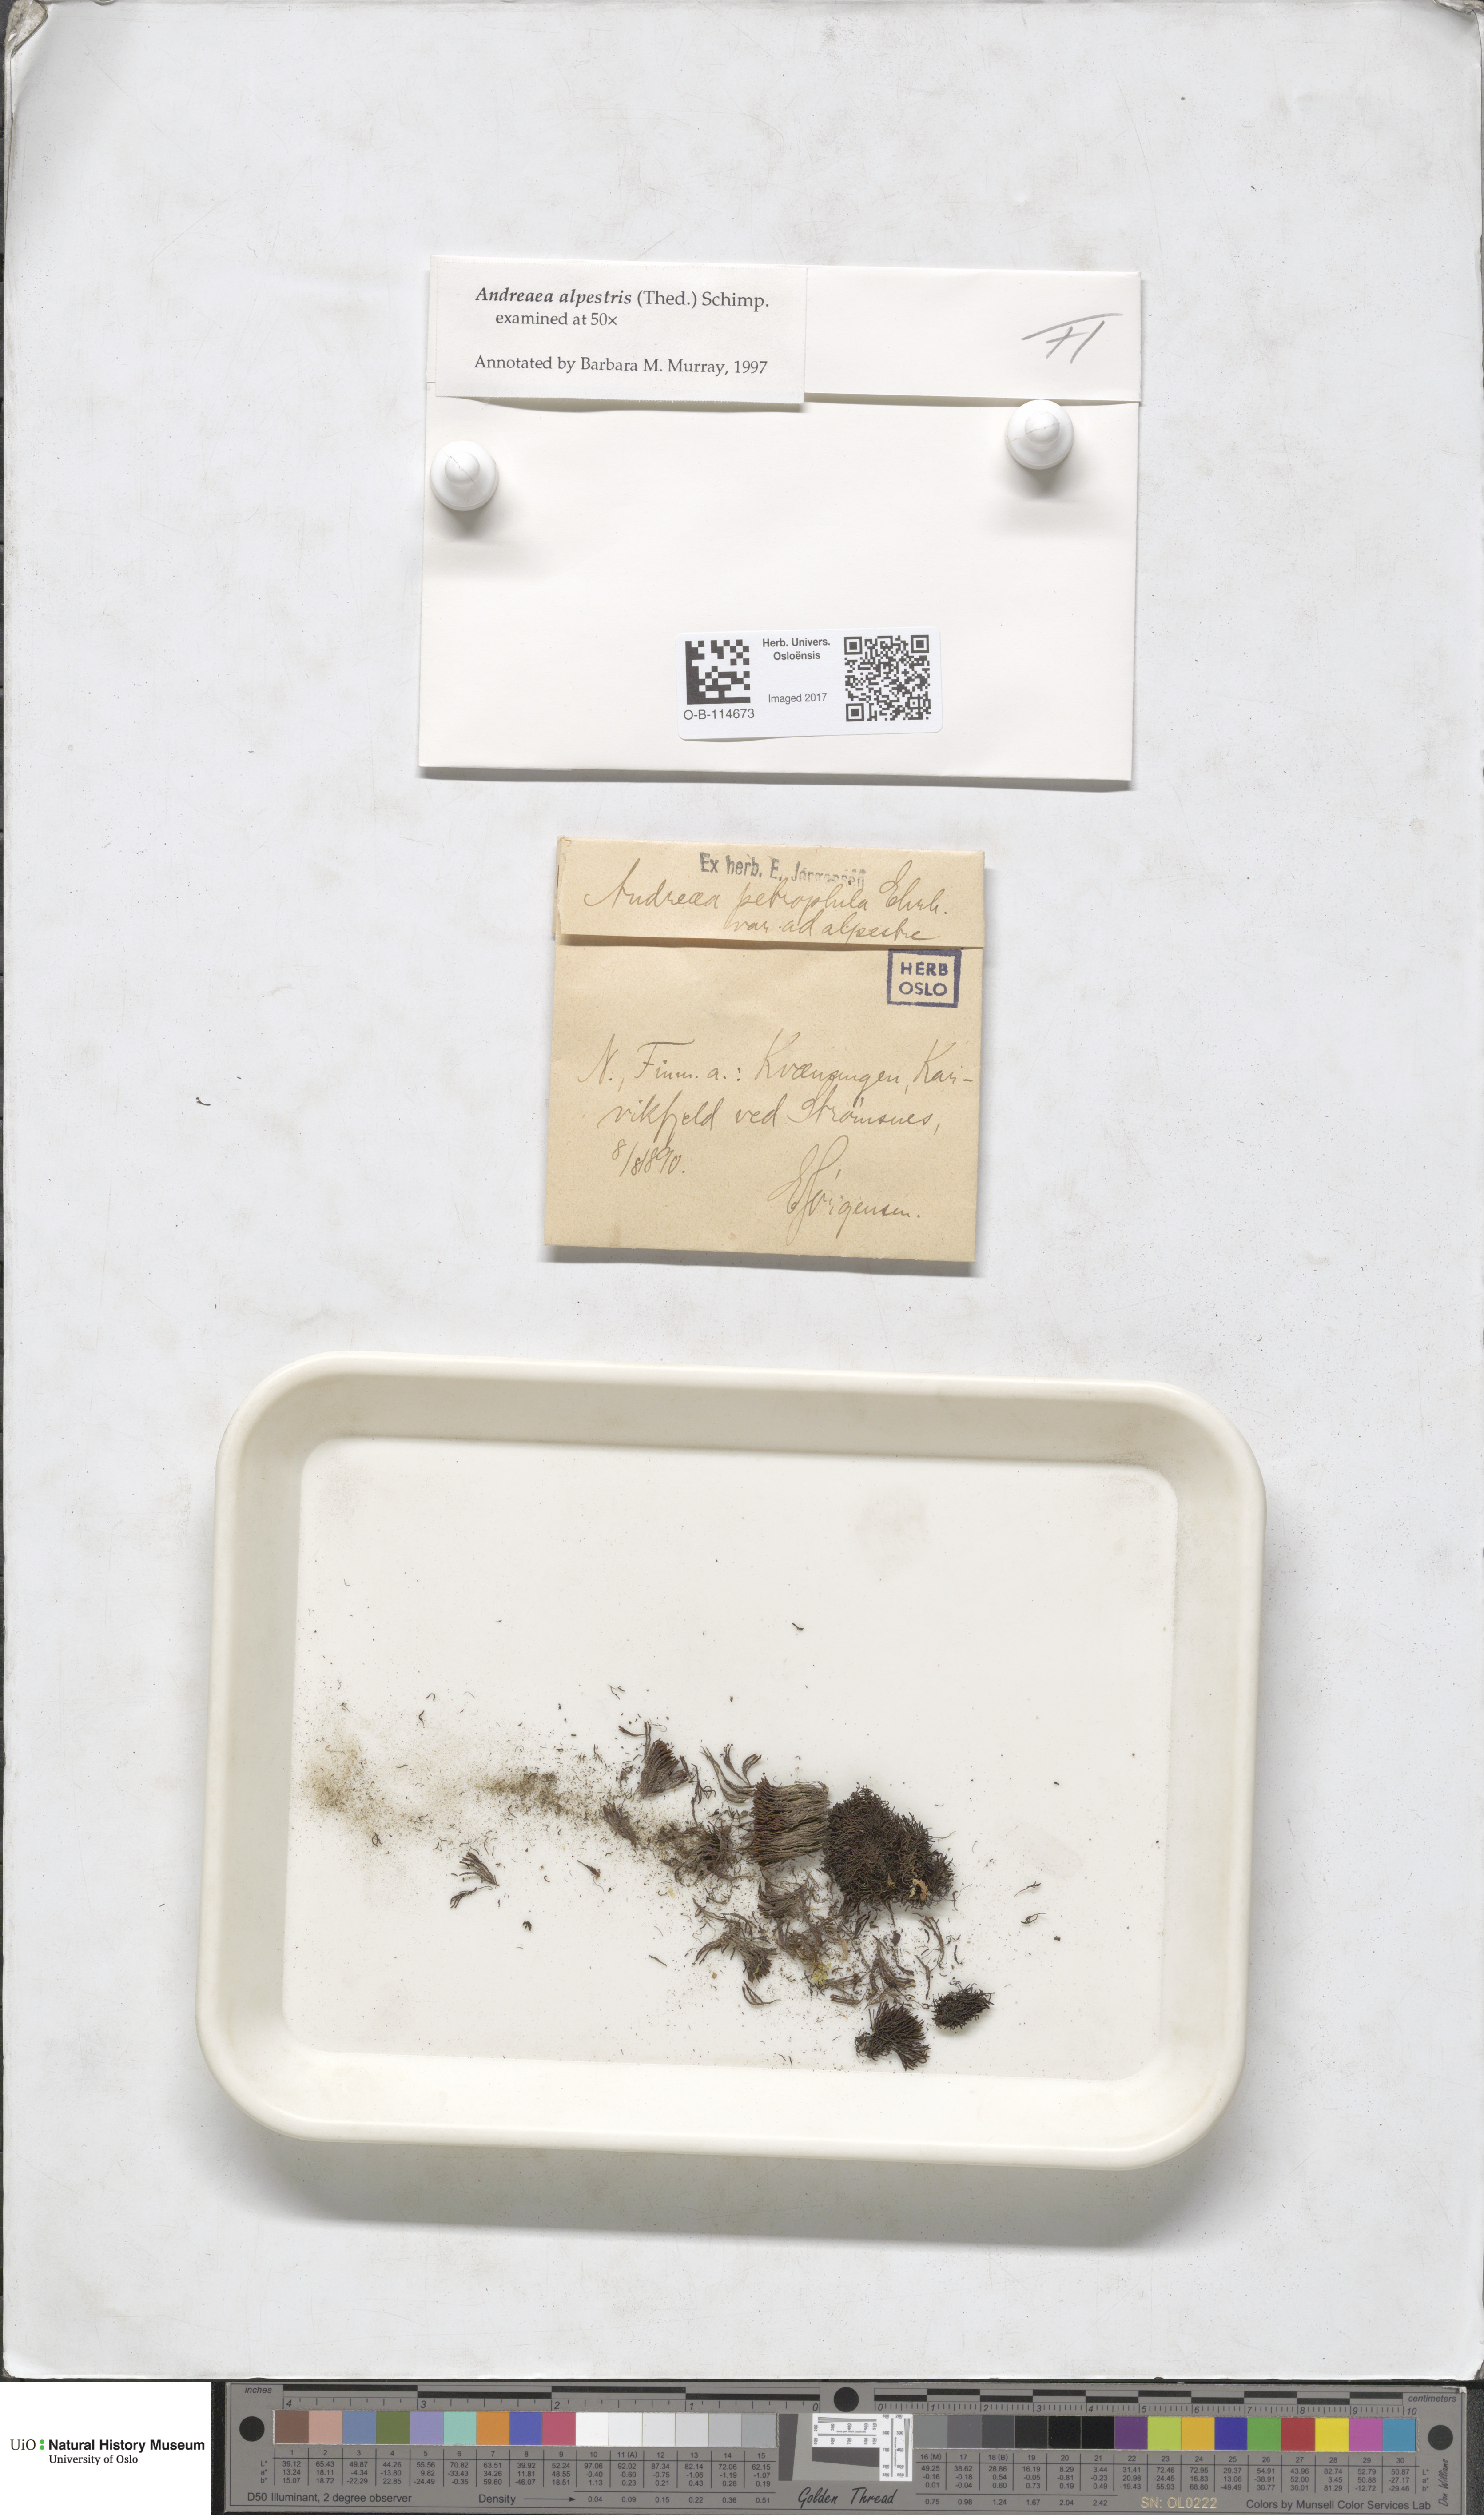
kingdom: Plantae
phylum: Bryophyta
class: Andreaeopsida
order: Andreaeales
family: Andreaeaceae
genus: Andreaea
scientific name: Andreaea alpestris
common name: Slender rock-moss
